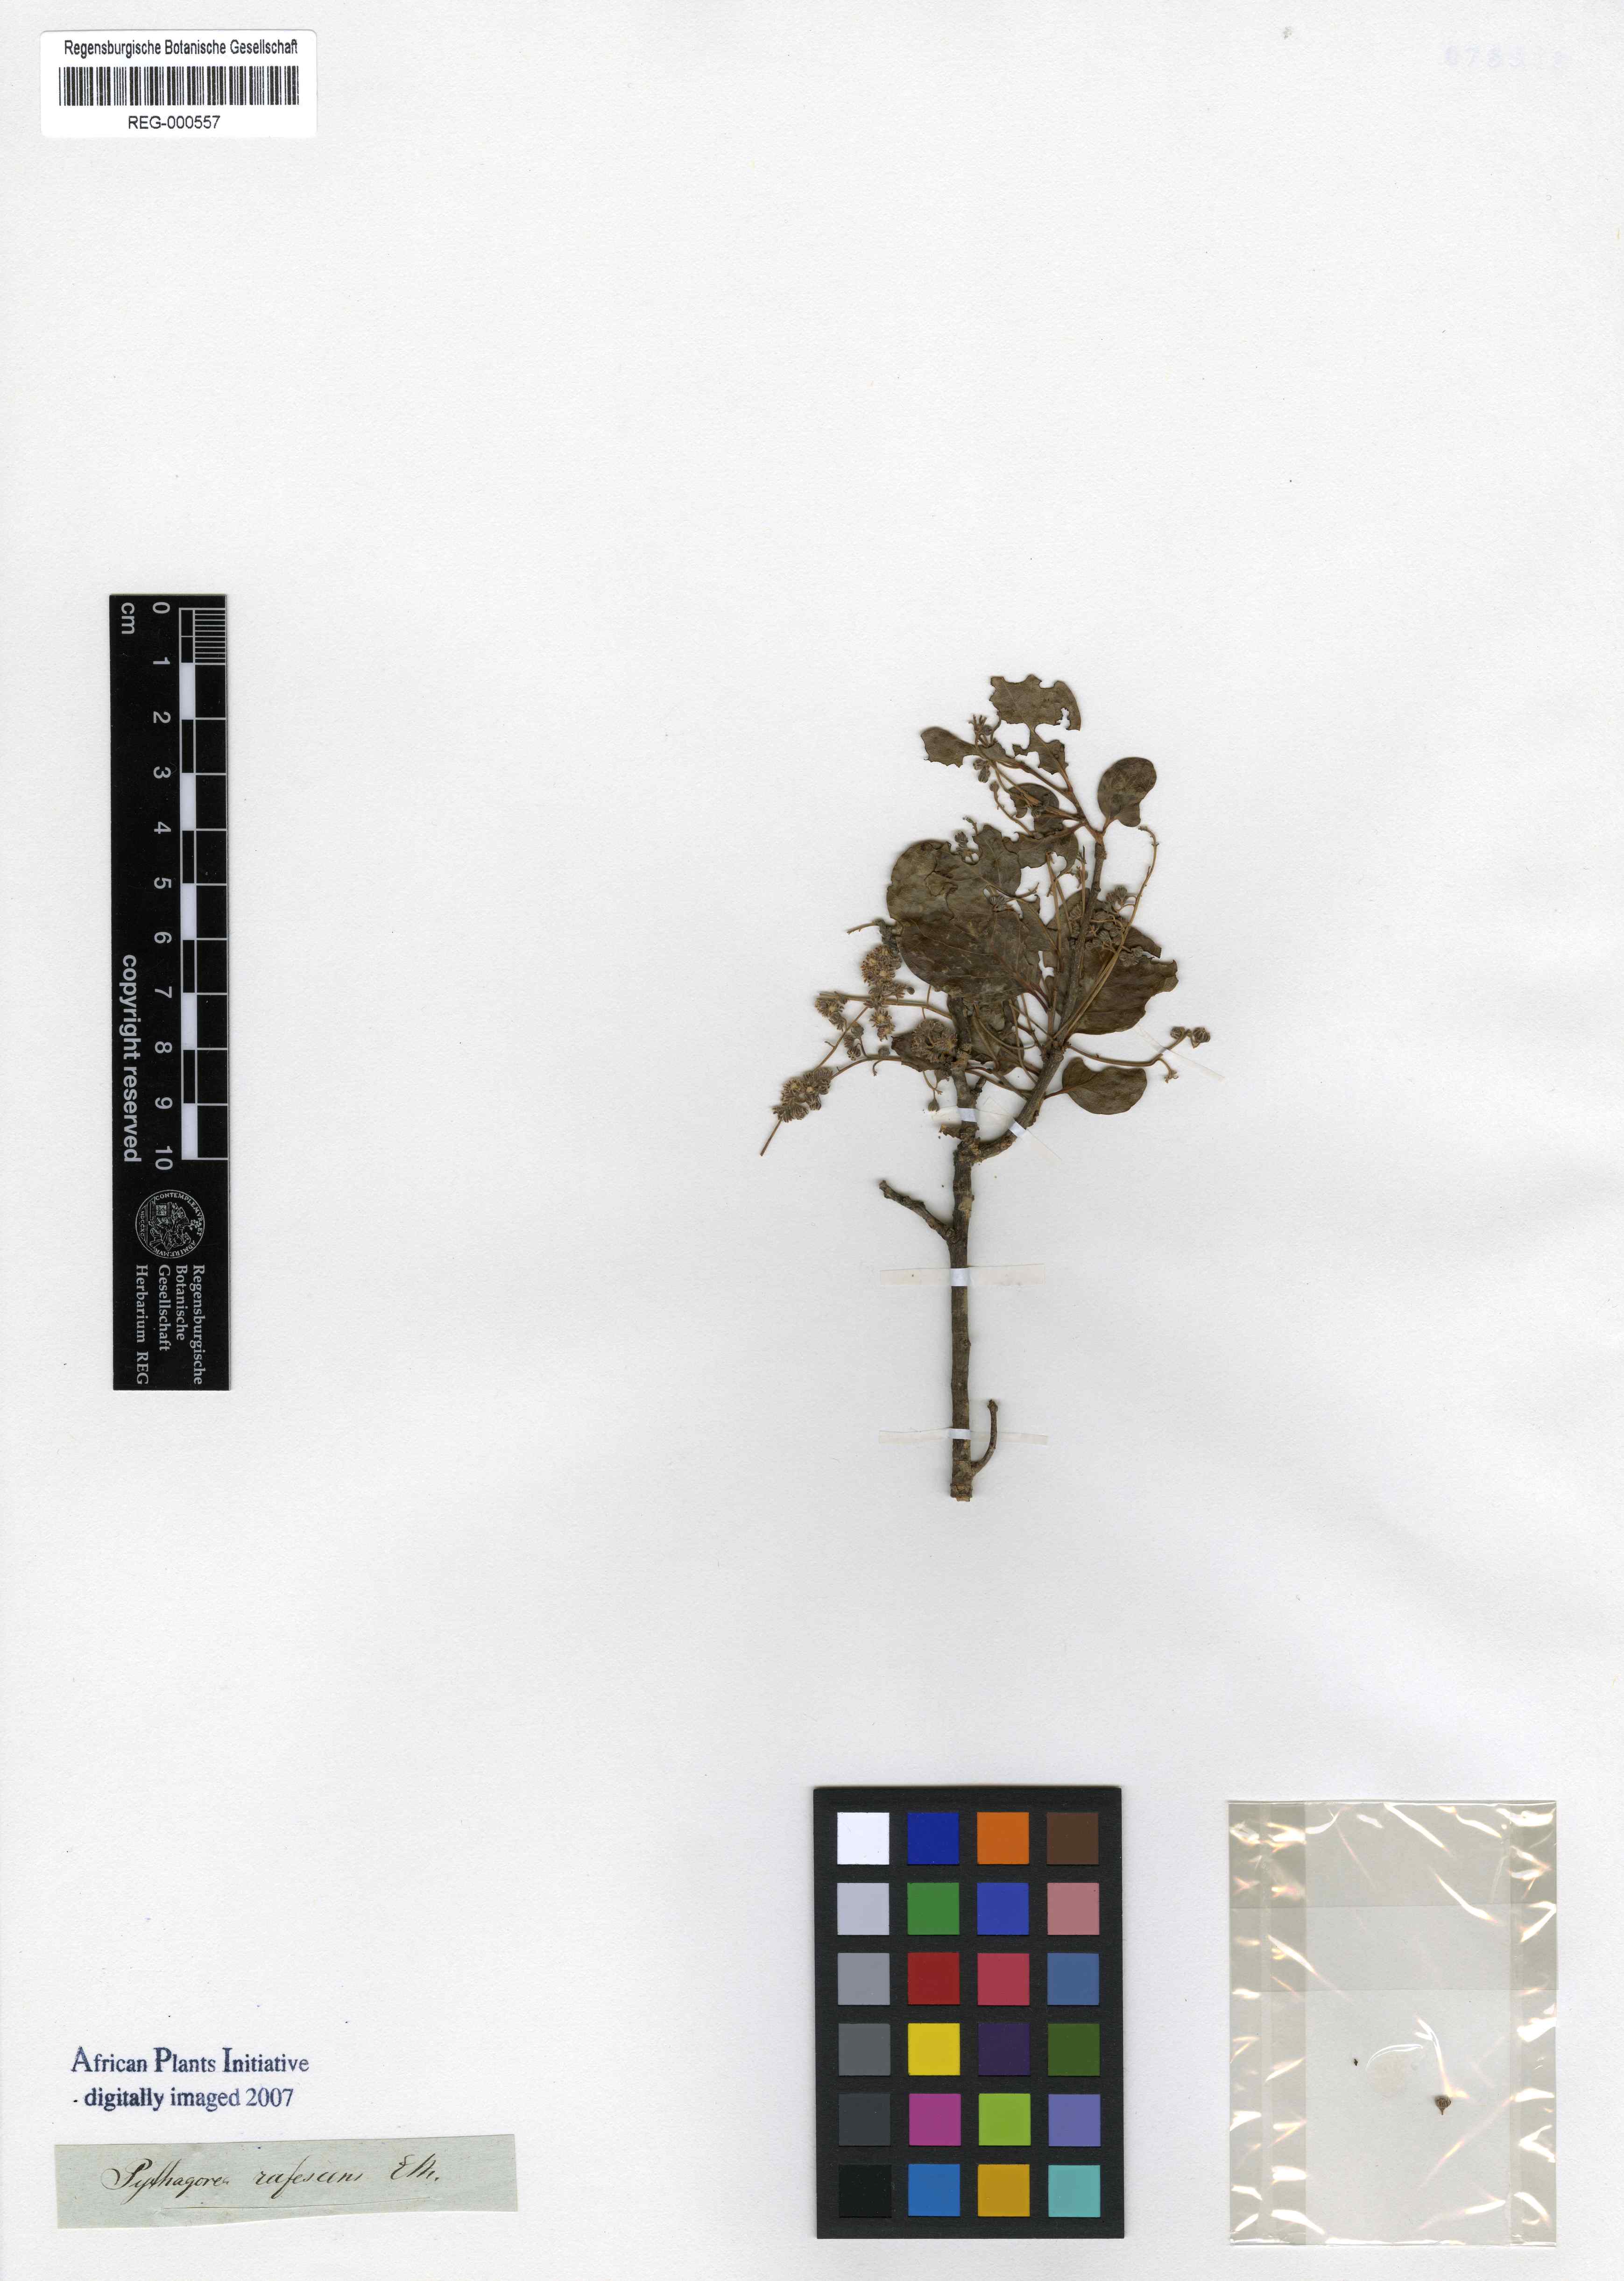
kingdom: Plantae
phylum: Tracheophyta
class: Magnoliopsida
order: Malpighiales
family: Salicaceae
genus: Homalium
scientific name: Homalium rufescens
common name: Small-leaved brown-ironwood
